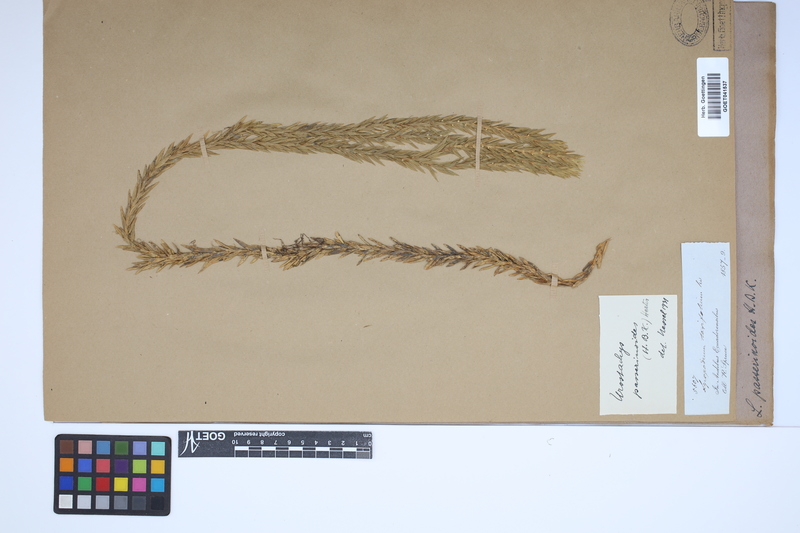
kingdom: Plantae
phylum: Tracheophyta
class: Lycopodiopsida
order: Lycopodiales
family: Lycopodiaceae
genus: Phlegmariurus
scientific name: Phlegmariurus taxifolius
